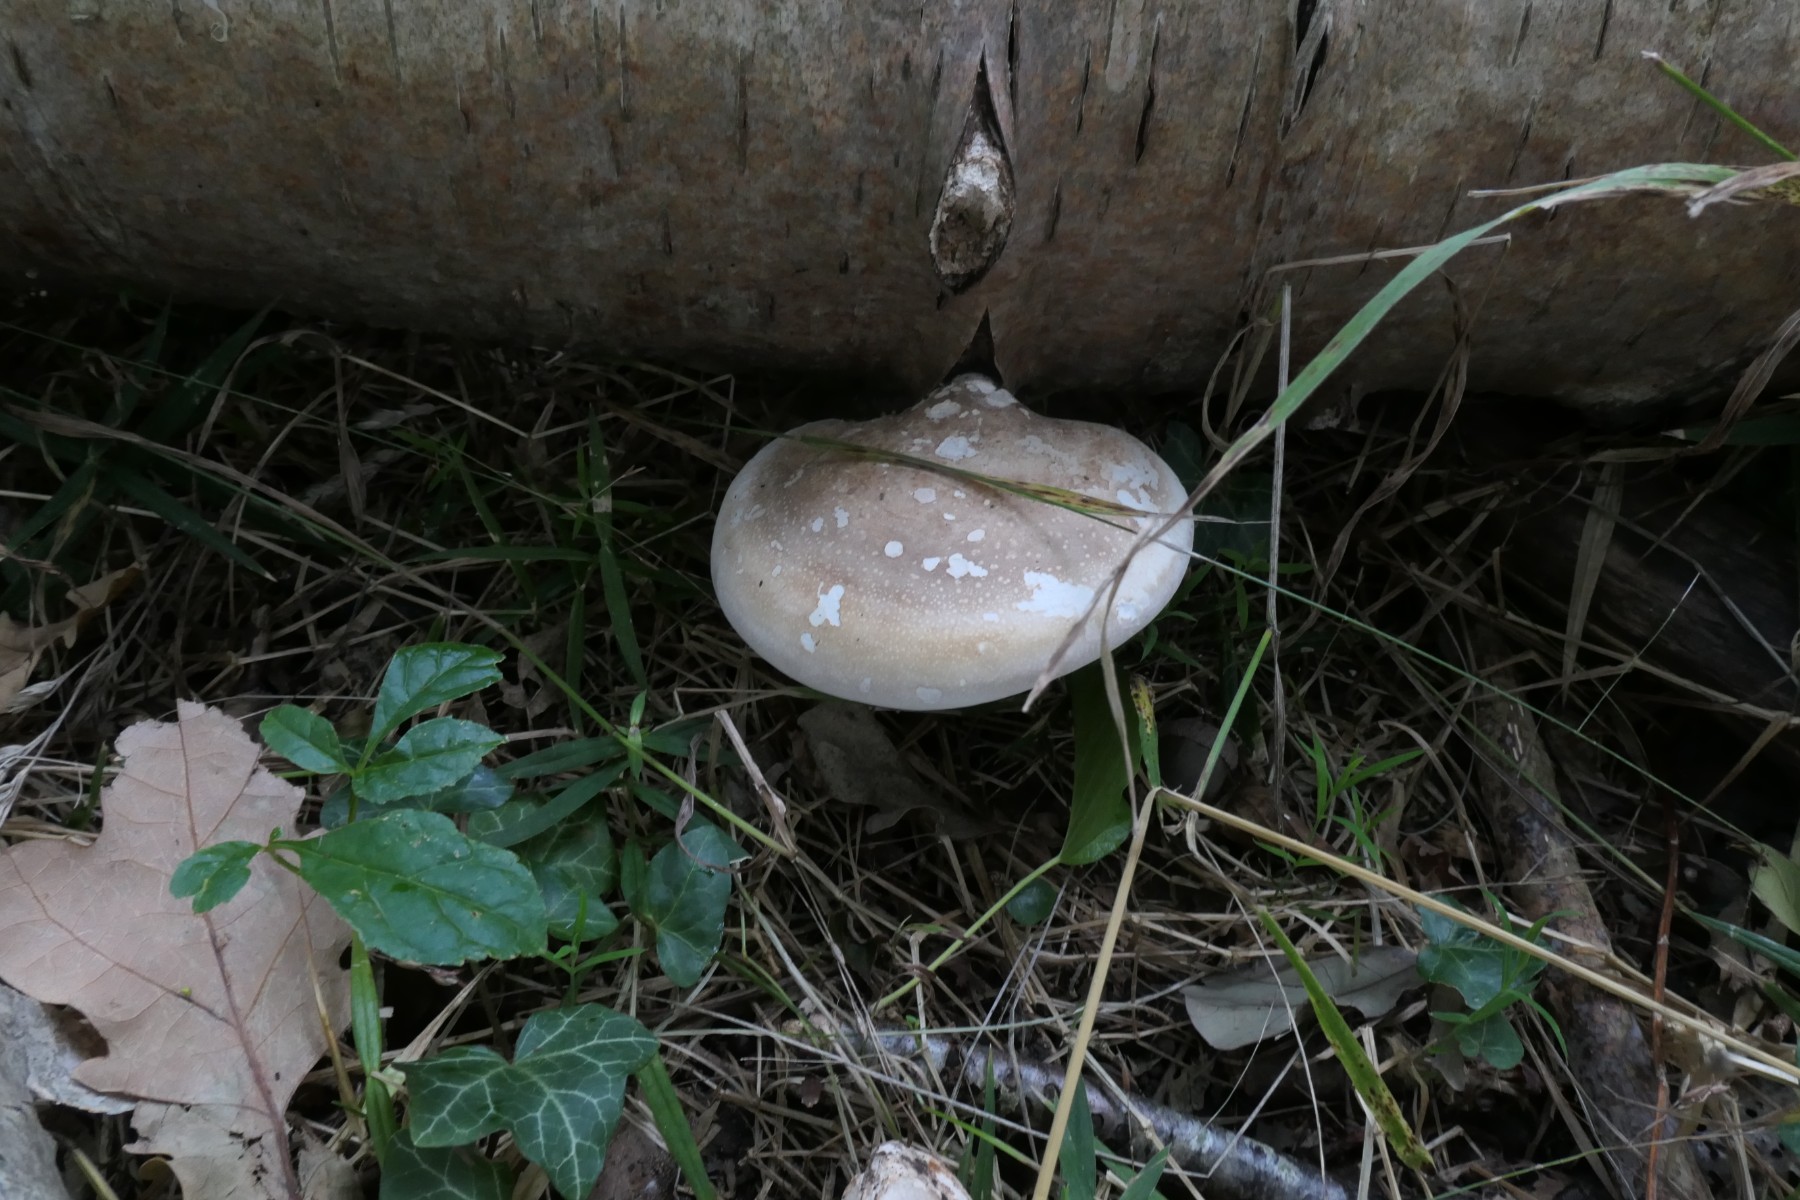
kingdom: Fungi
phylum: Basidiomycota
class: Agaricomycetes
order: Polyporales
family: Fomitopsidaceae
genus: Fomitopsis
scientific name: Fomitopsis betulina
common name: birkeporesvamp
